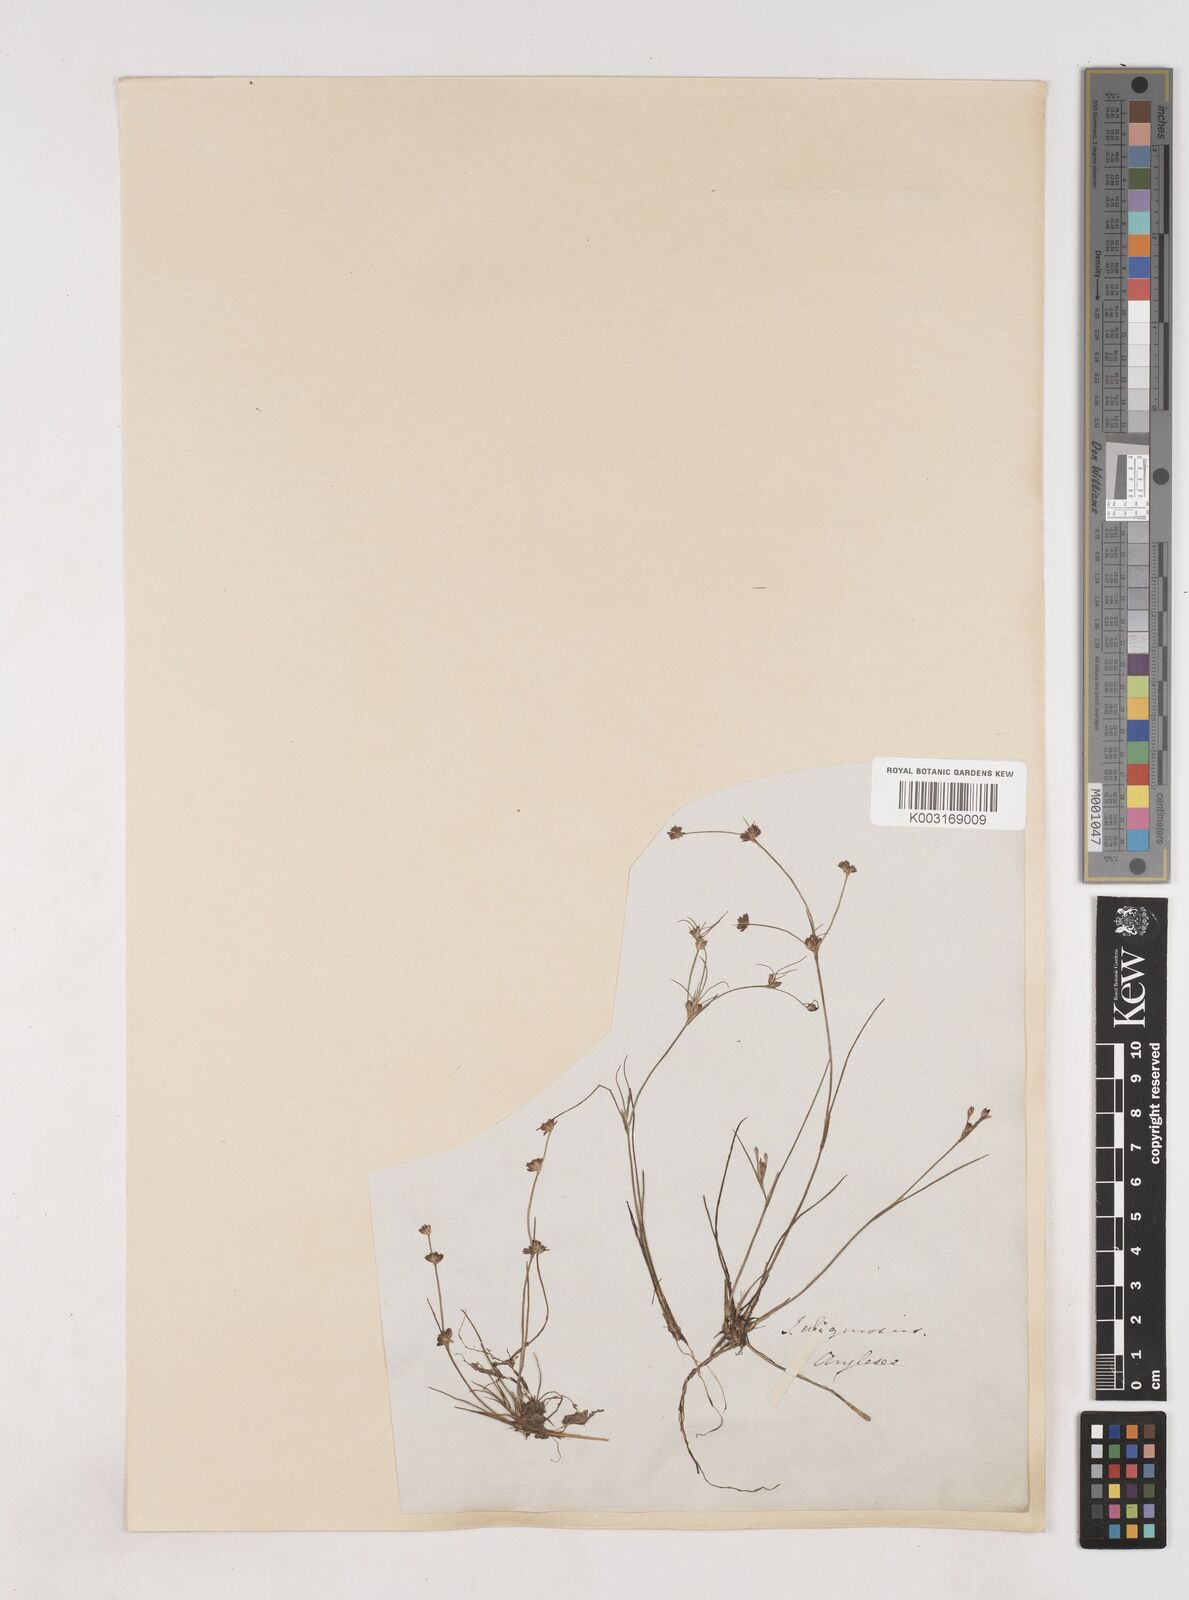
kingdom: Plantae
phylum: Tracheophyta
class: Liliopsida
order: Poales
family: Juncaceae
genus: Juncus
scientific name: Juncus bulbosus
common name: Bulbous rush
